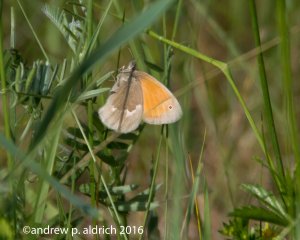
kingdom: Animalia
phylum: Arthropoda
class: Insecta
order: Lepidoptera
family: Nymphalidae
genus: Coenonympha
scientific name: Coenonympha tullia
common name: Large Heath
